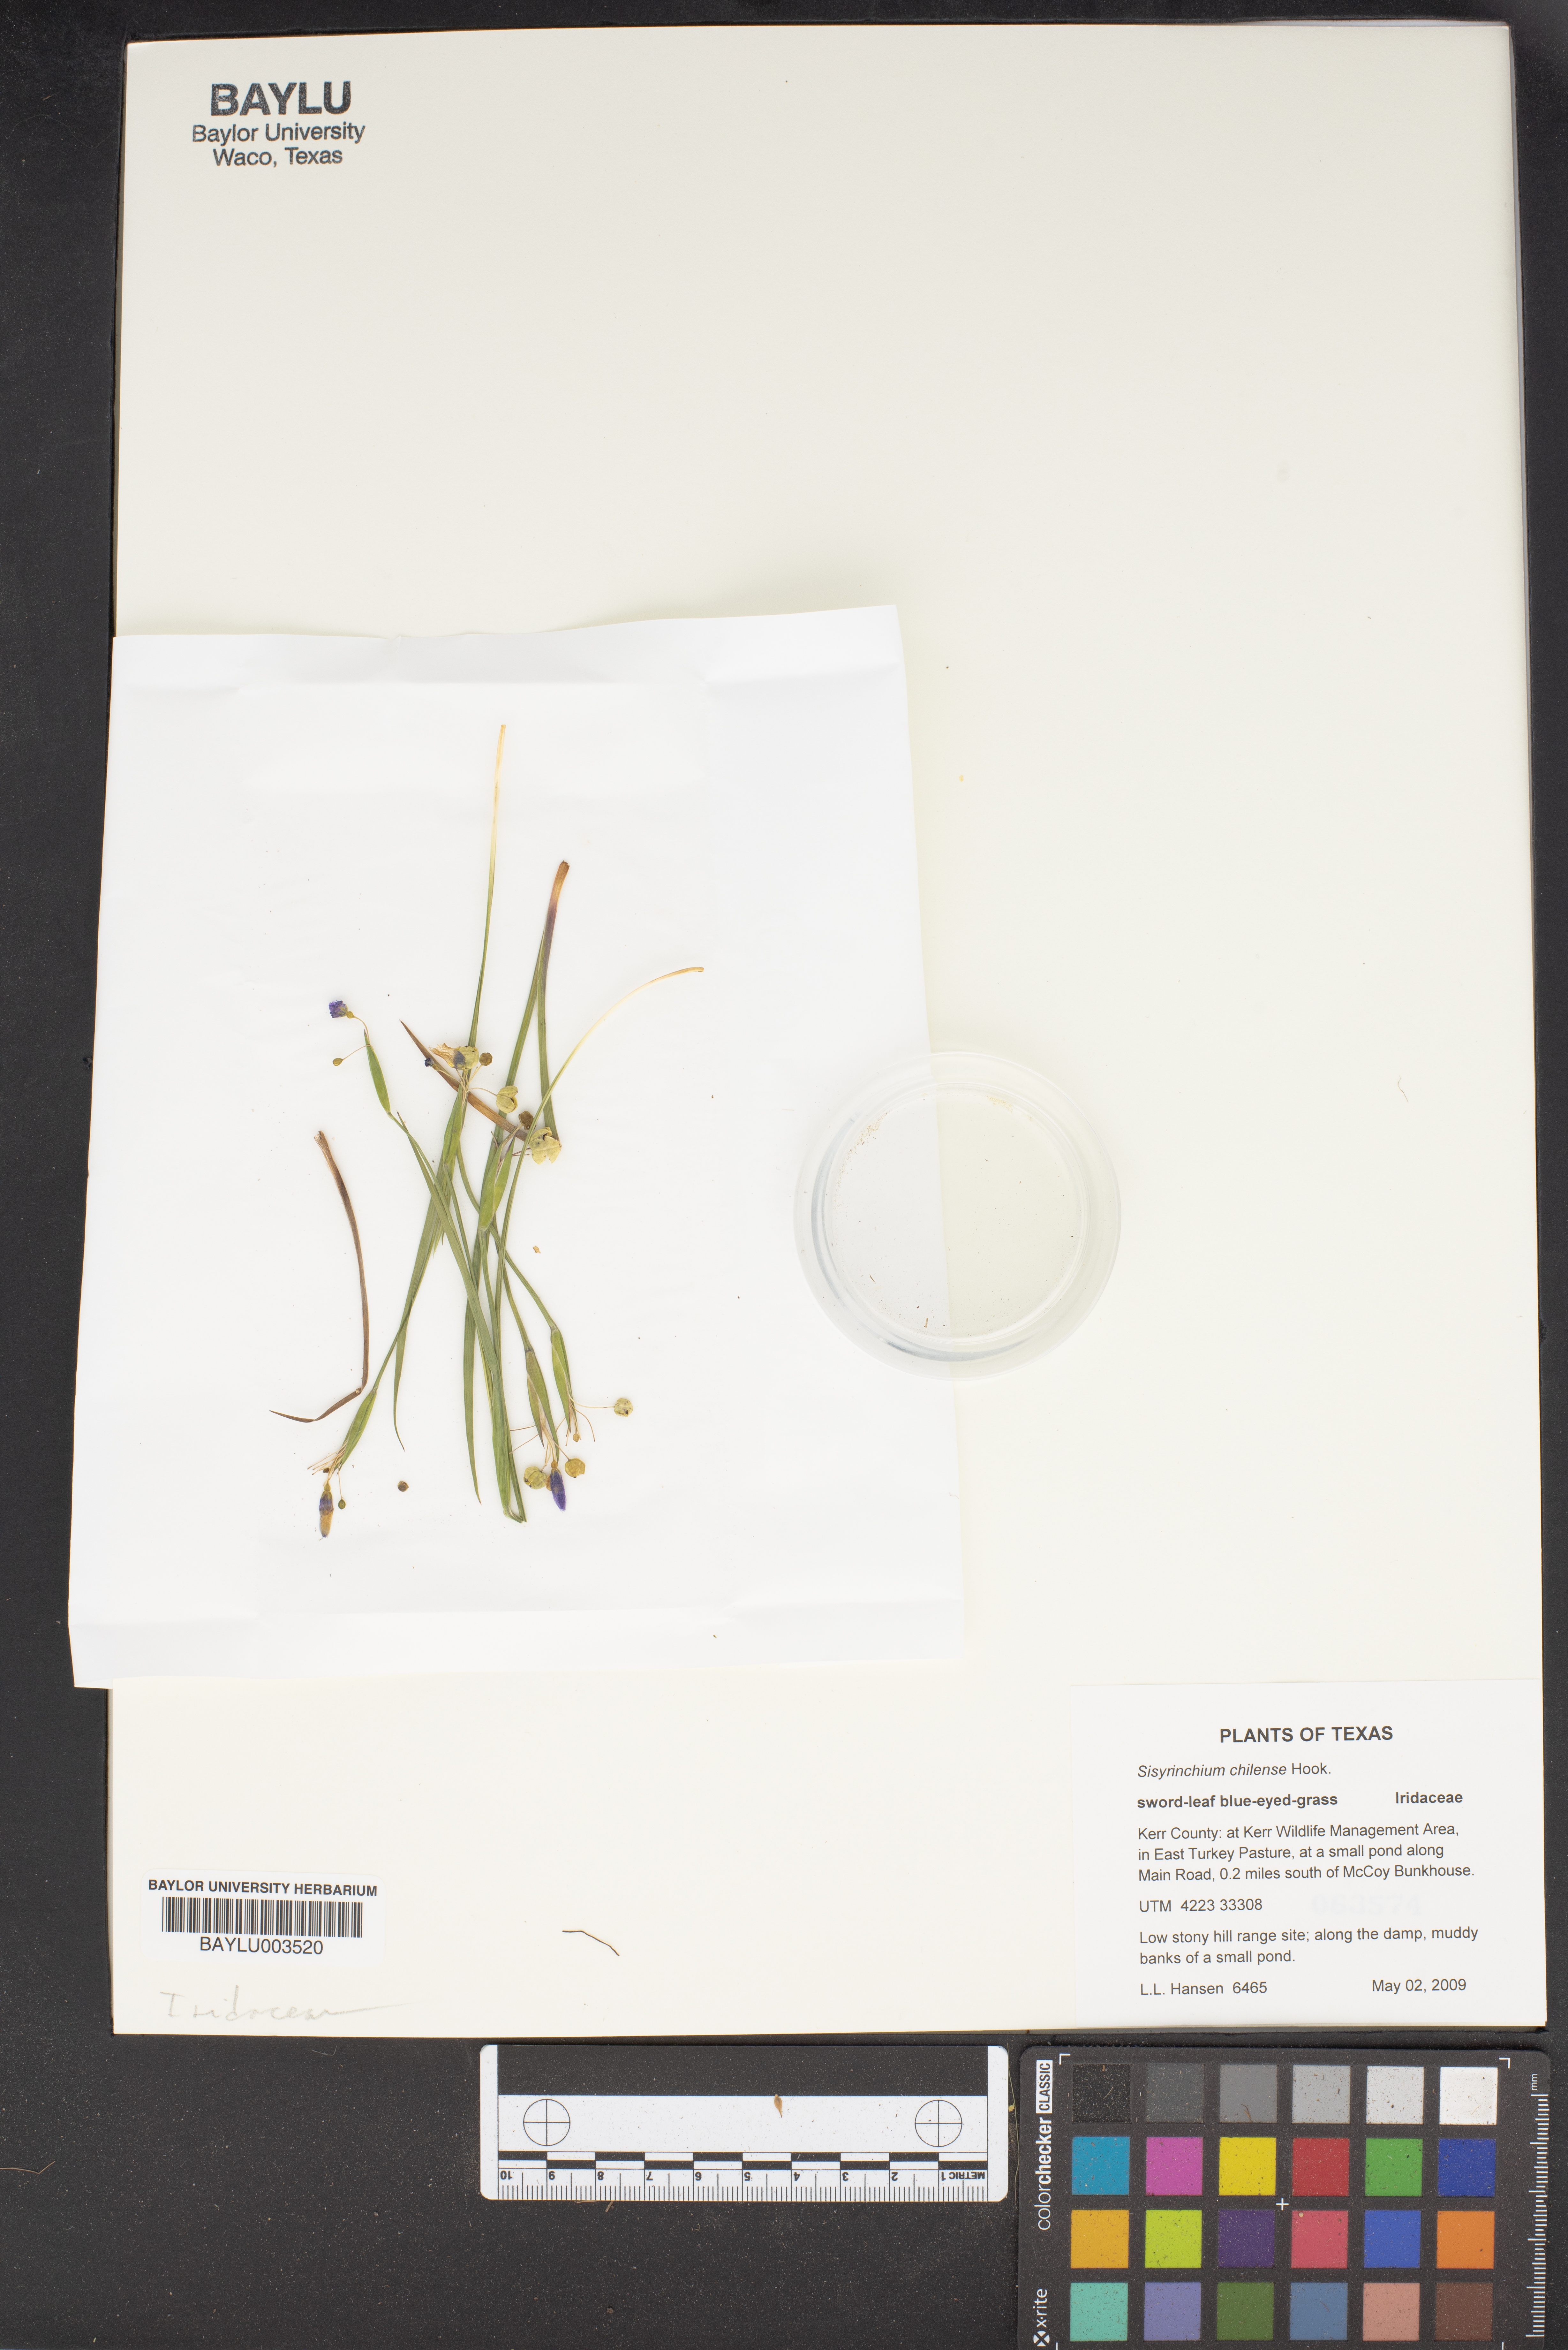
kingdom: Plantae
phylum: Tracheophyta
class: Liliopsida
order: Asparagales
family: Iridaceae
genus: Sisyrinchium
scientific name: Sisyrinchium chilense
